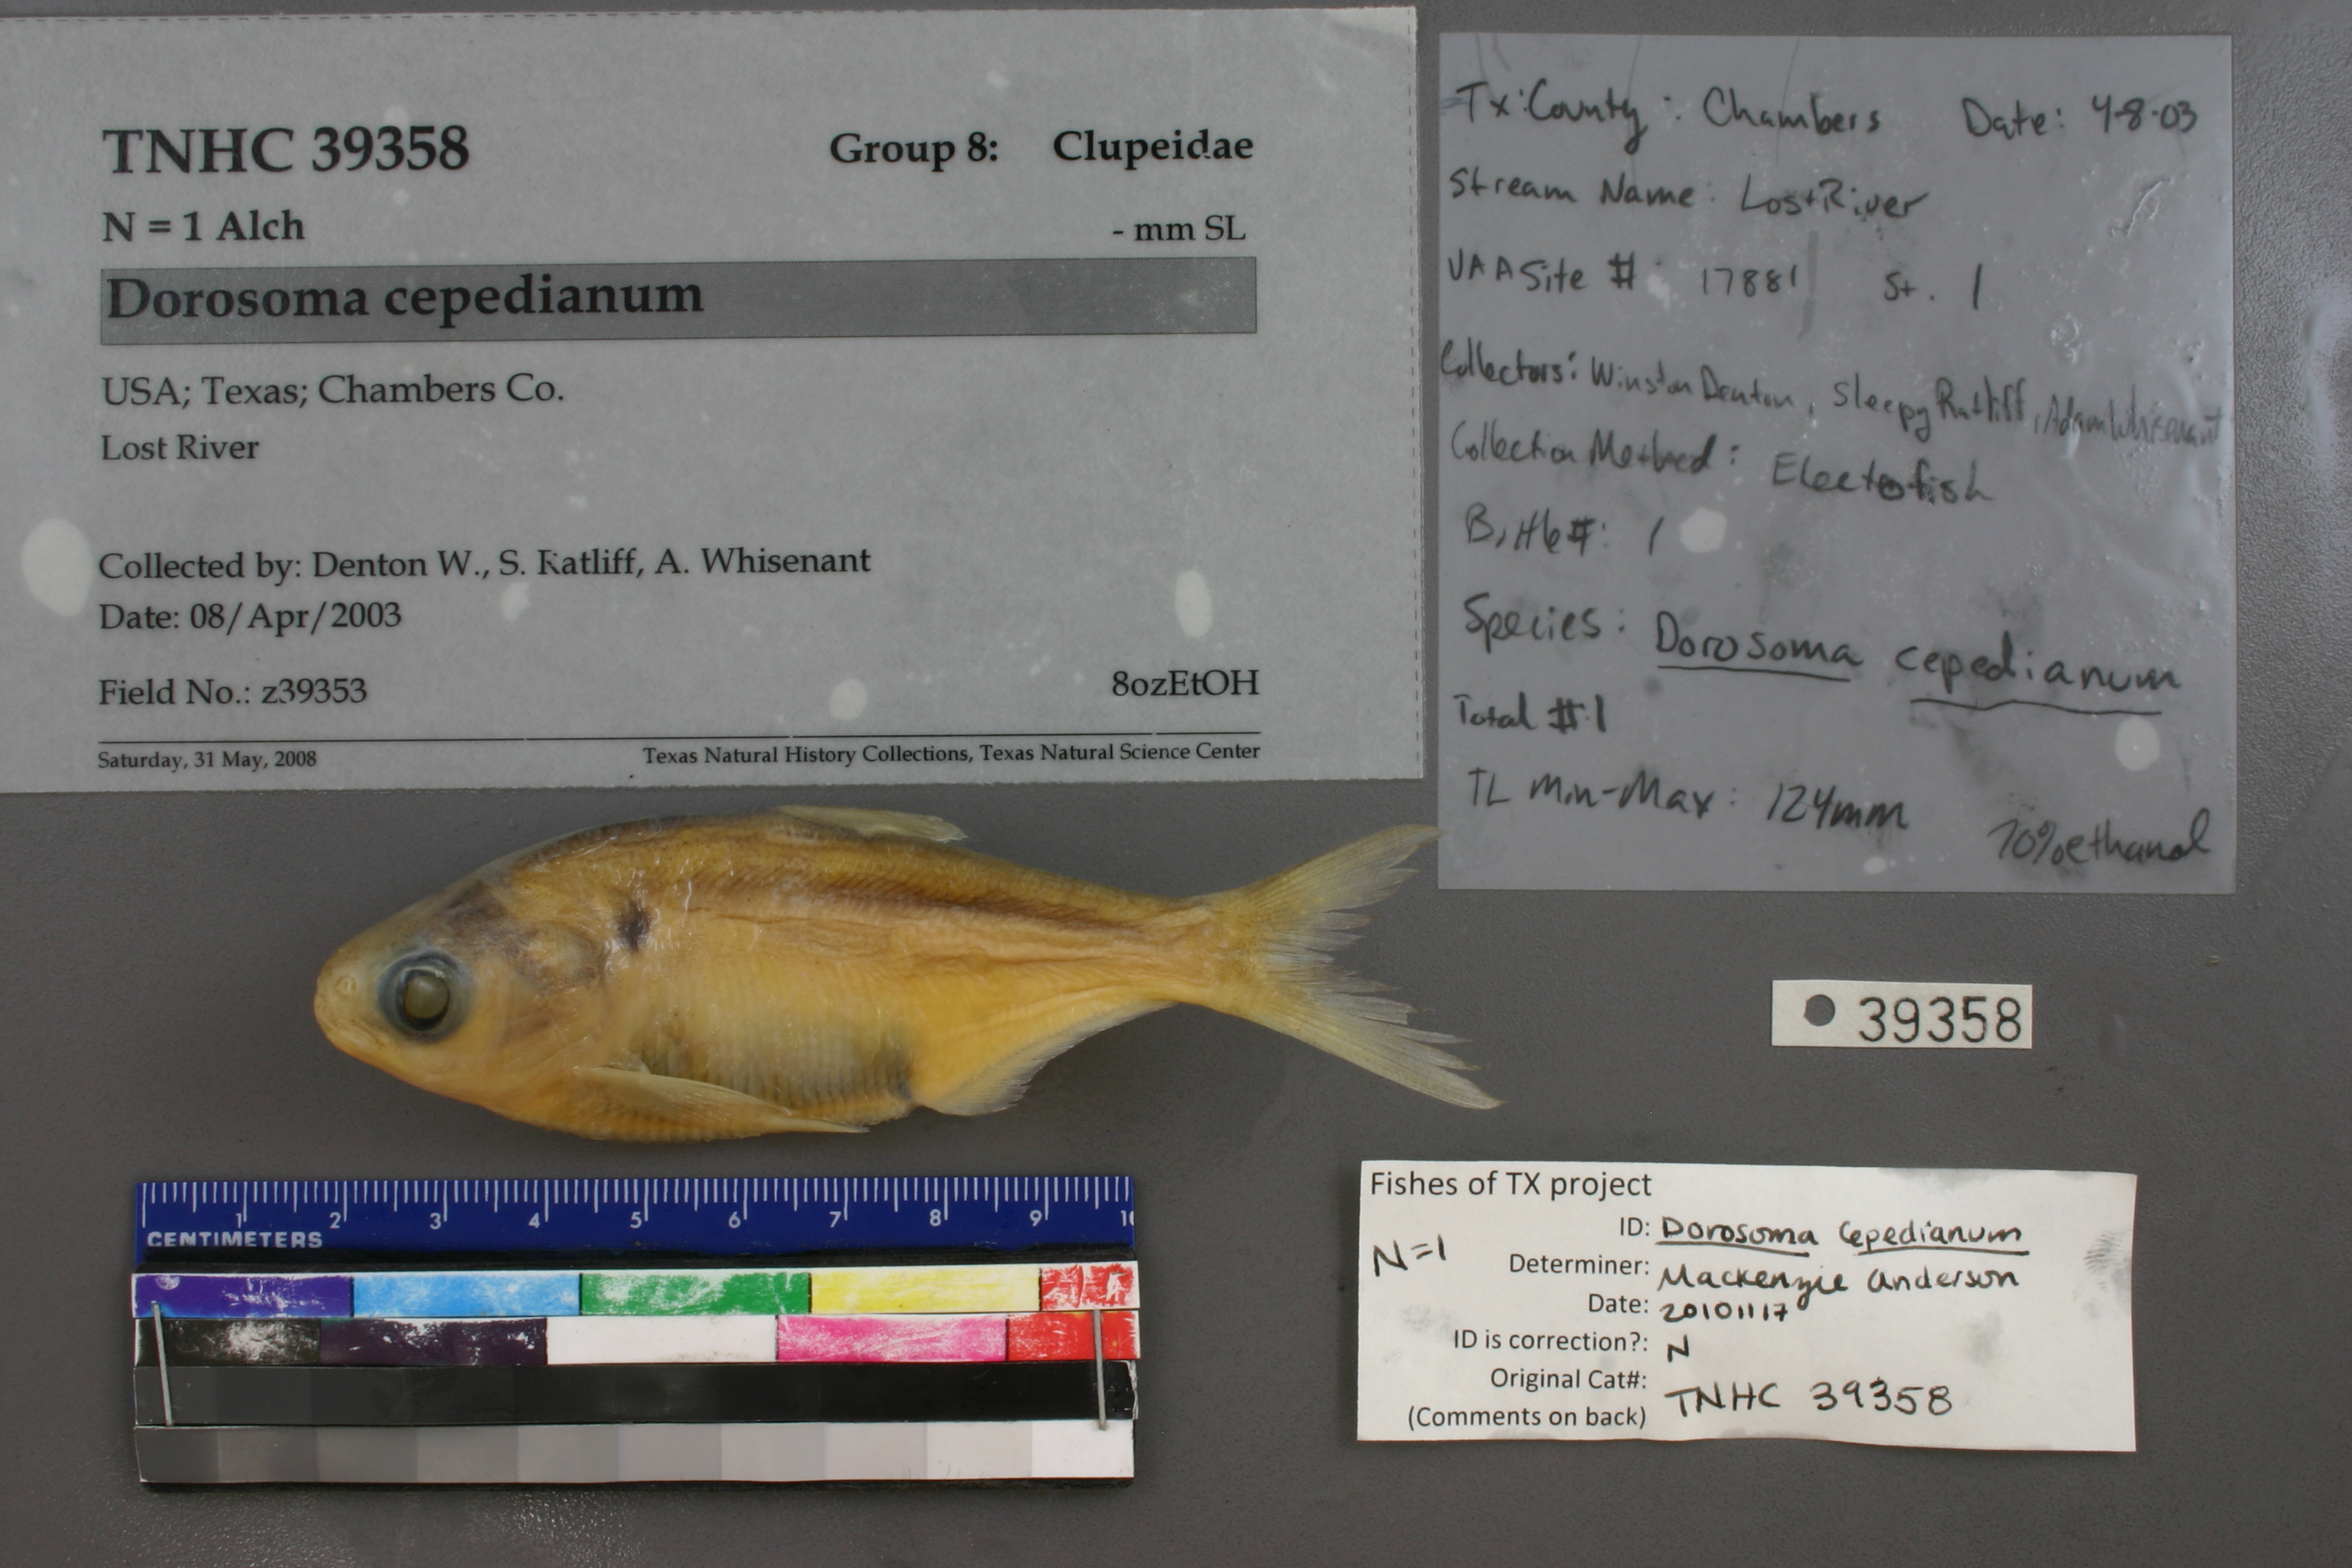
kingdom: Animalia
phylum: Chordata
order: Clupeiformes
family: Clupeidae
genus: Dorosoma
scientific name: Dorosoma cepedianum
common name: Gizzard shad
